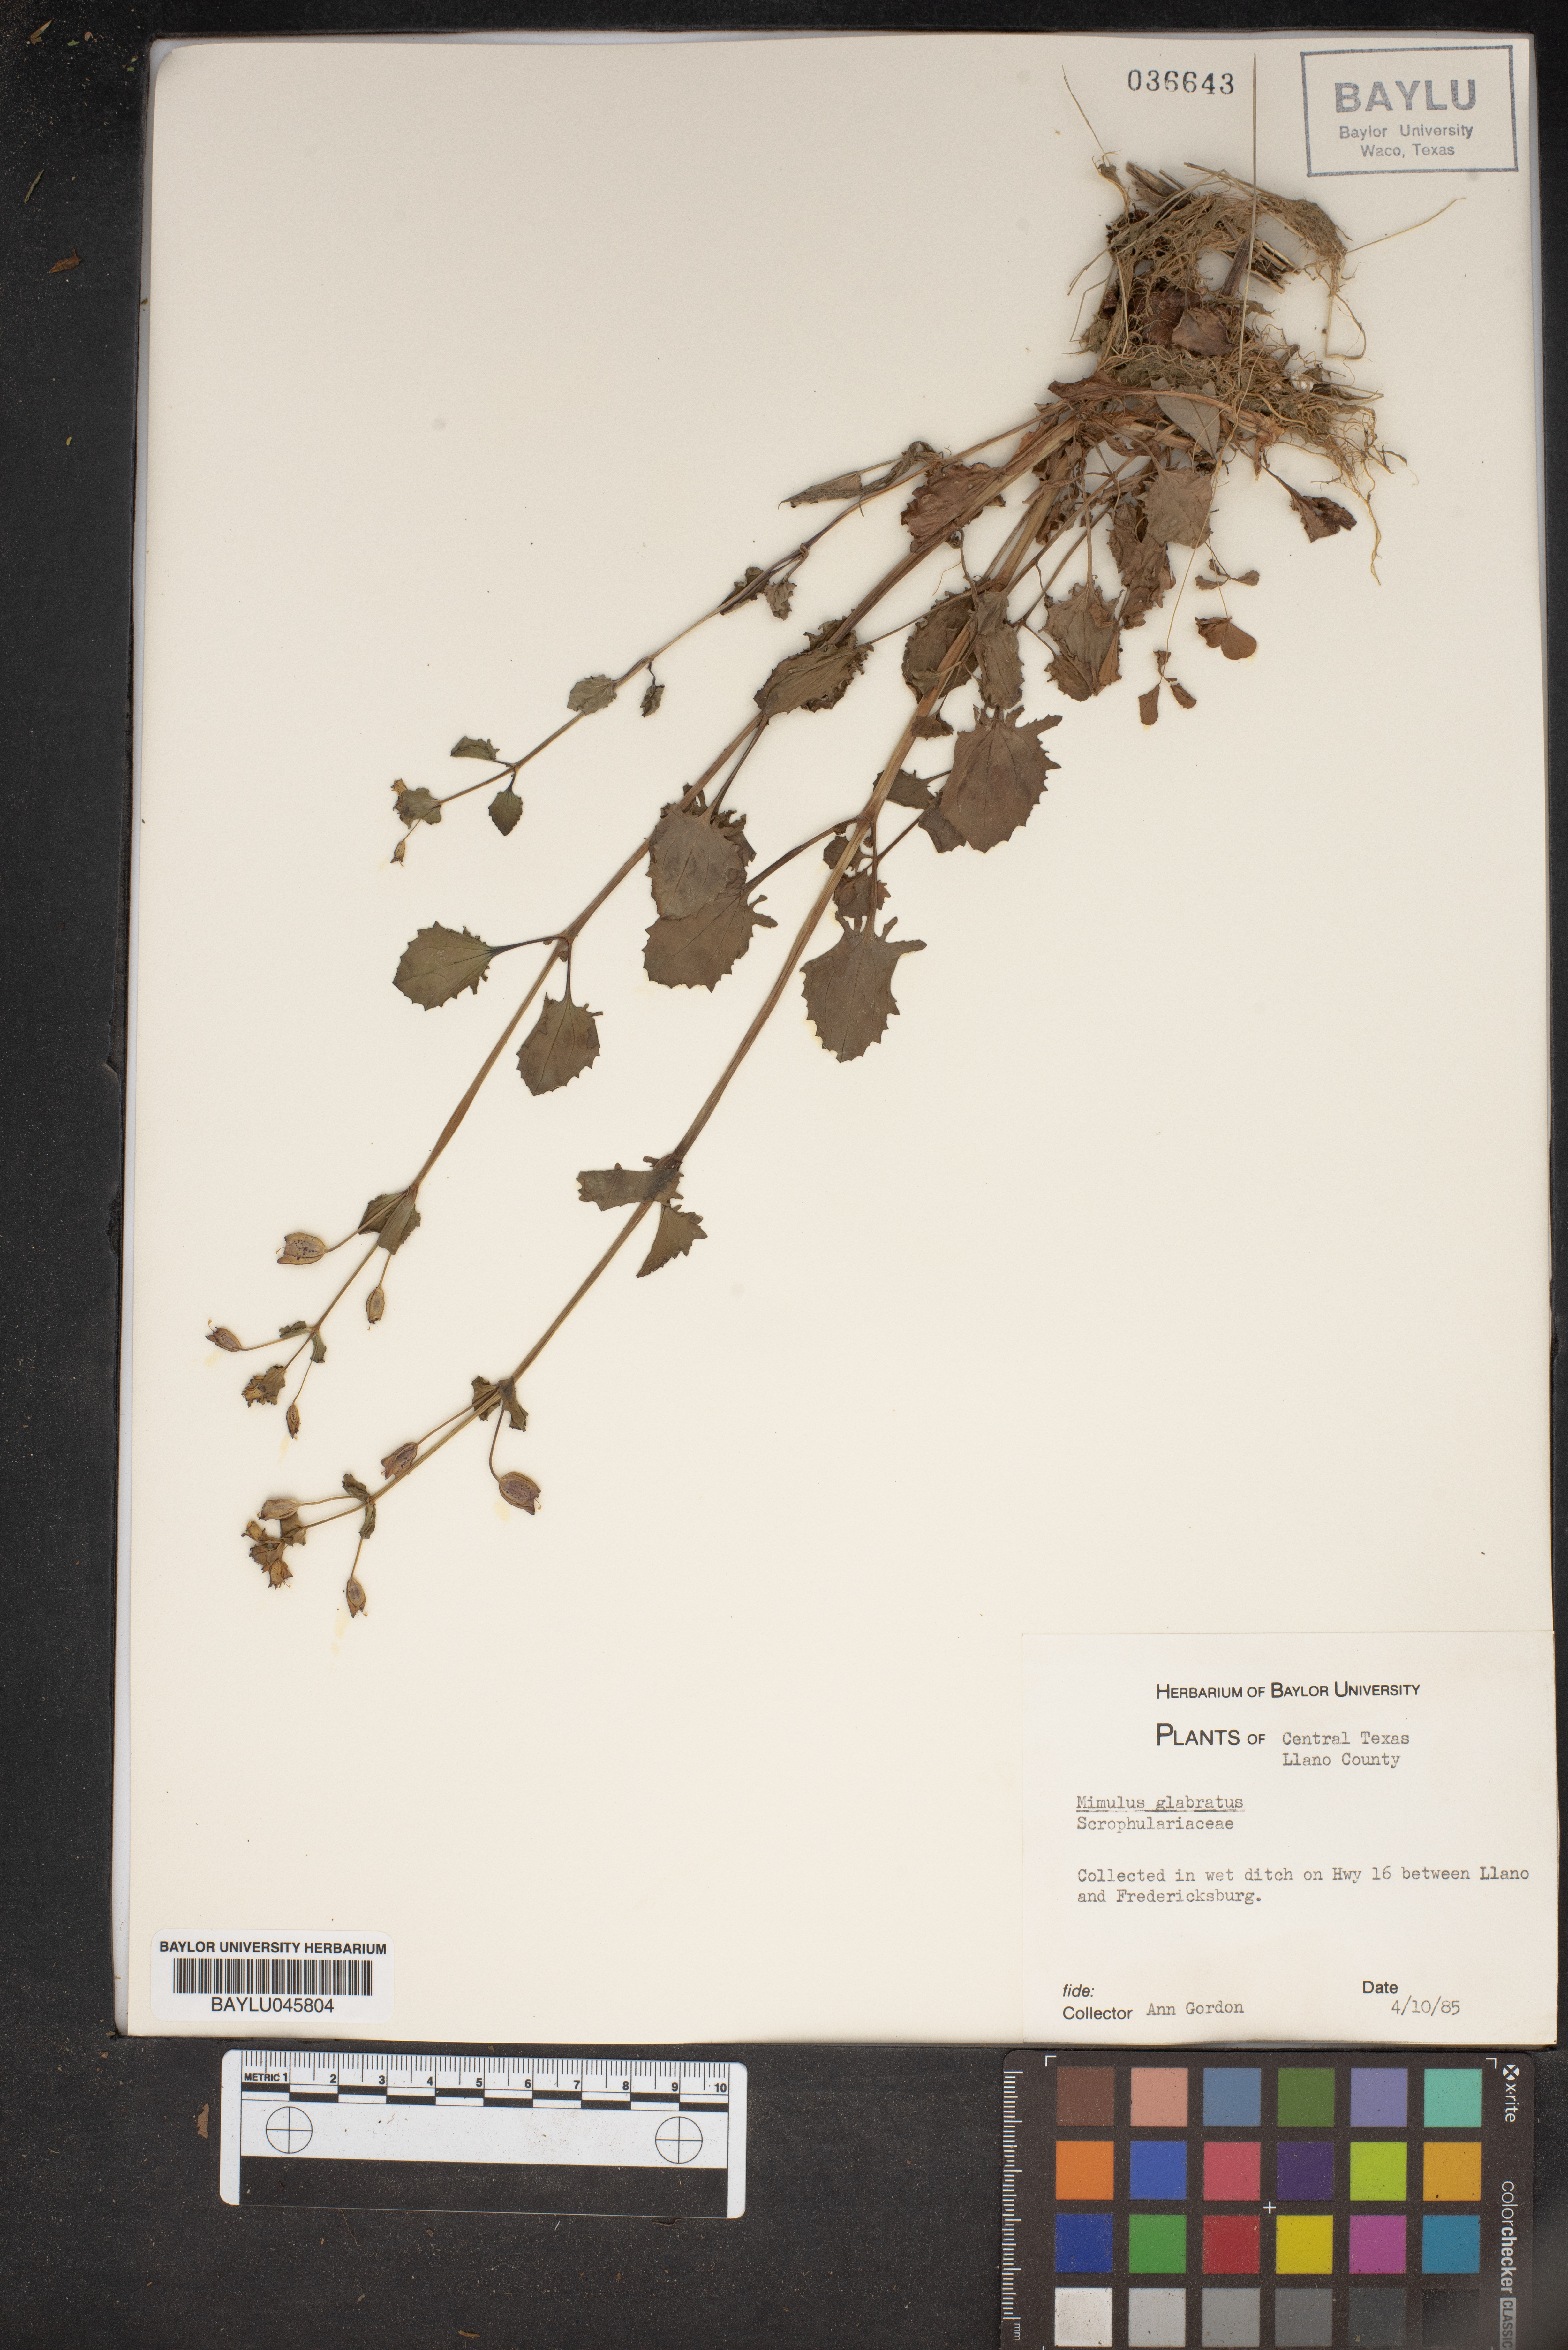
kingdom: Plantae
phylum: Tracheophyta
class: Magnoliopsida
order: Lamiales
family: Phrymaceae
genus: Erythranthe
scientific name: Erythranthe glabrata
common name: Round-leaved monkeyflower
